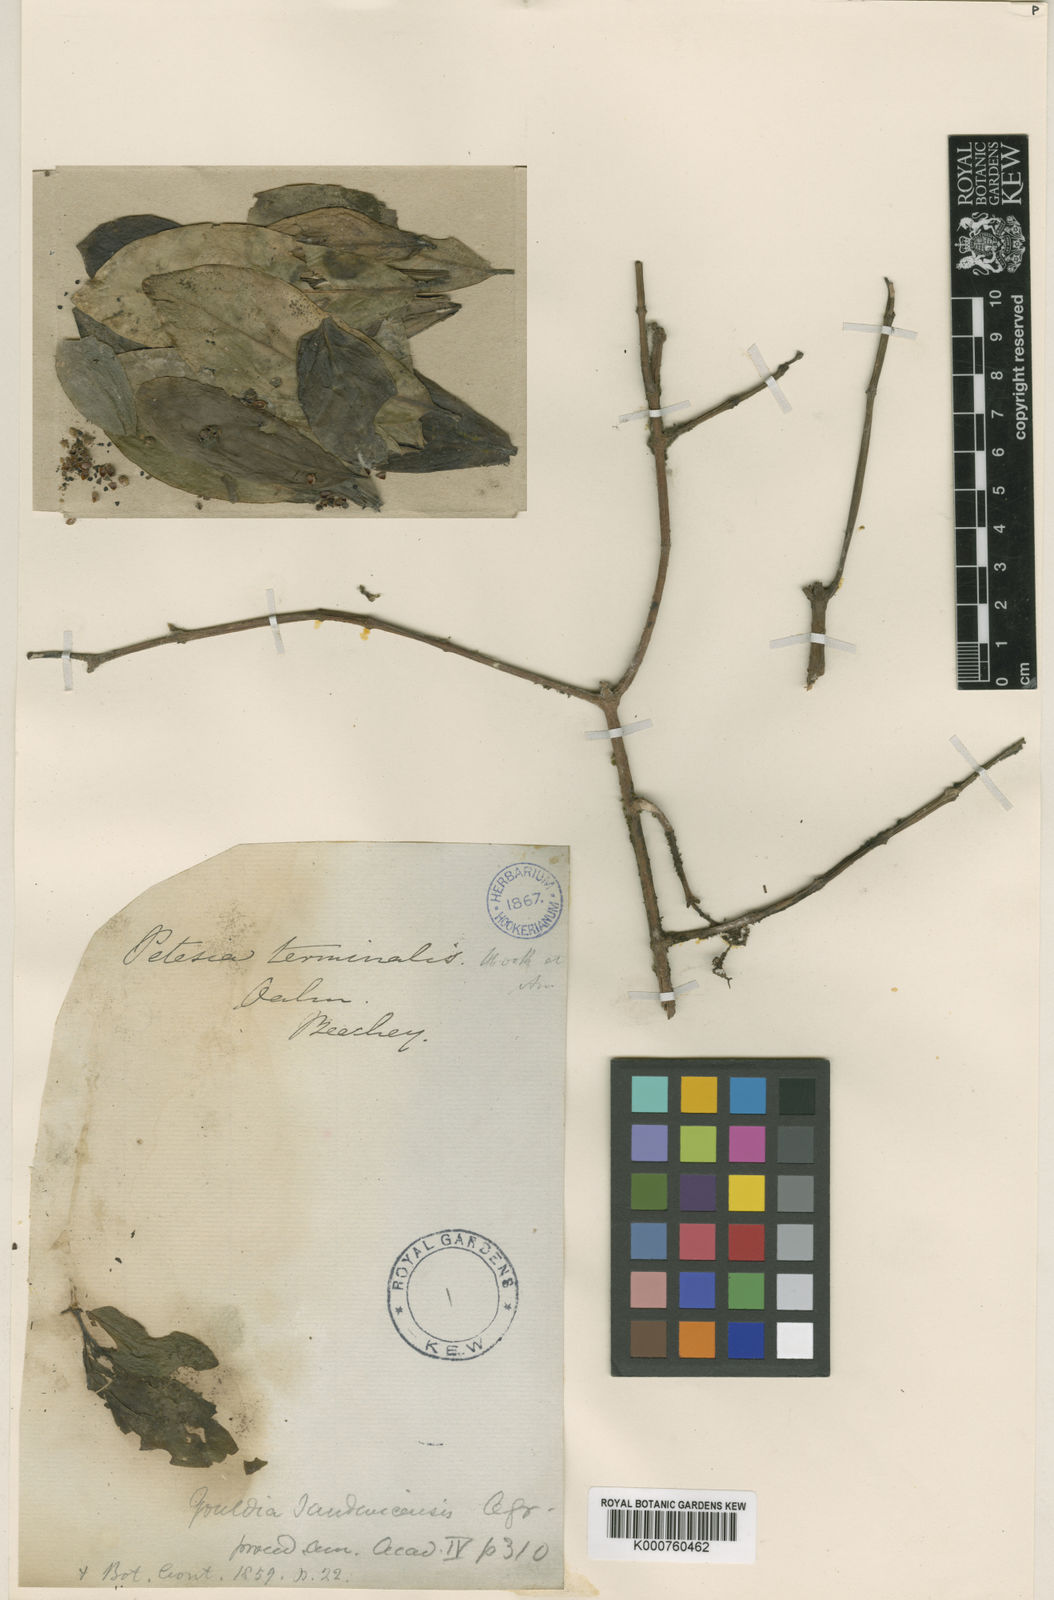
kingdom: Plantae
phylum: Tracheophyta
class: Magnoliopsida
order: Gentianales
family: Rubiaceae
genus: Kadua
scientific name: Kadua affinis
